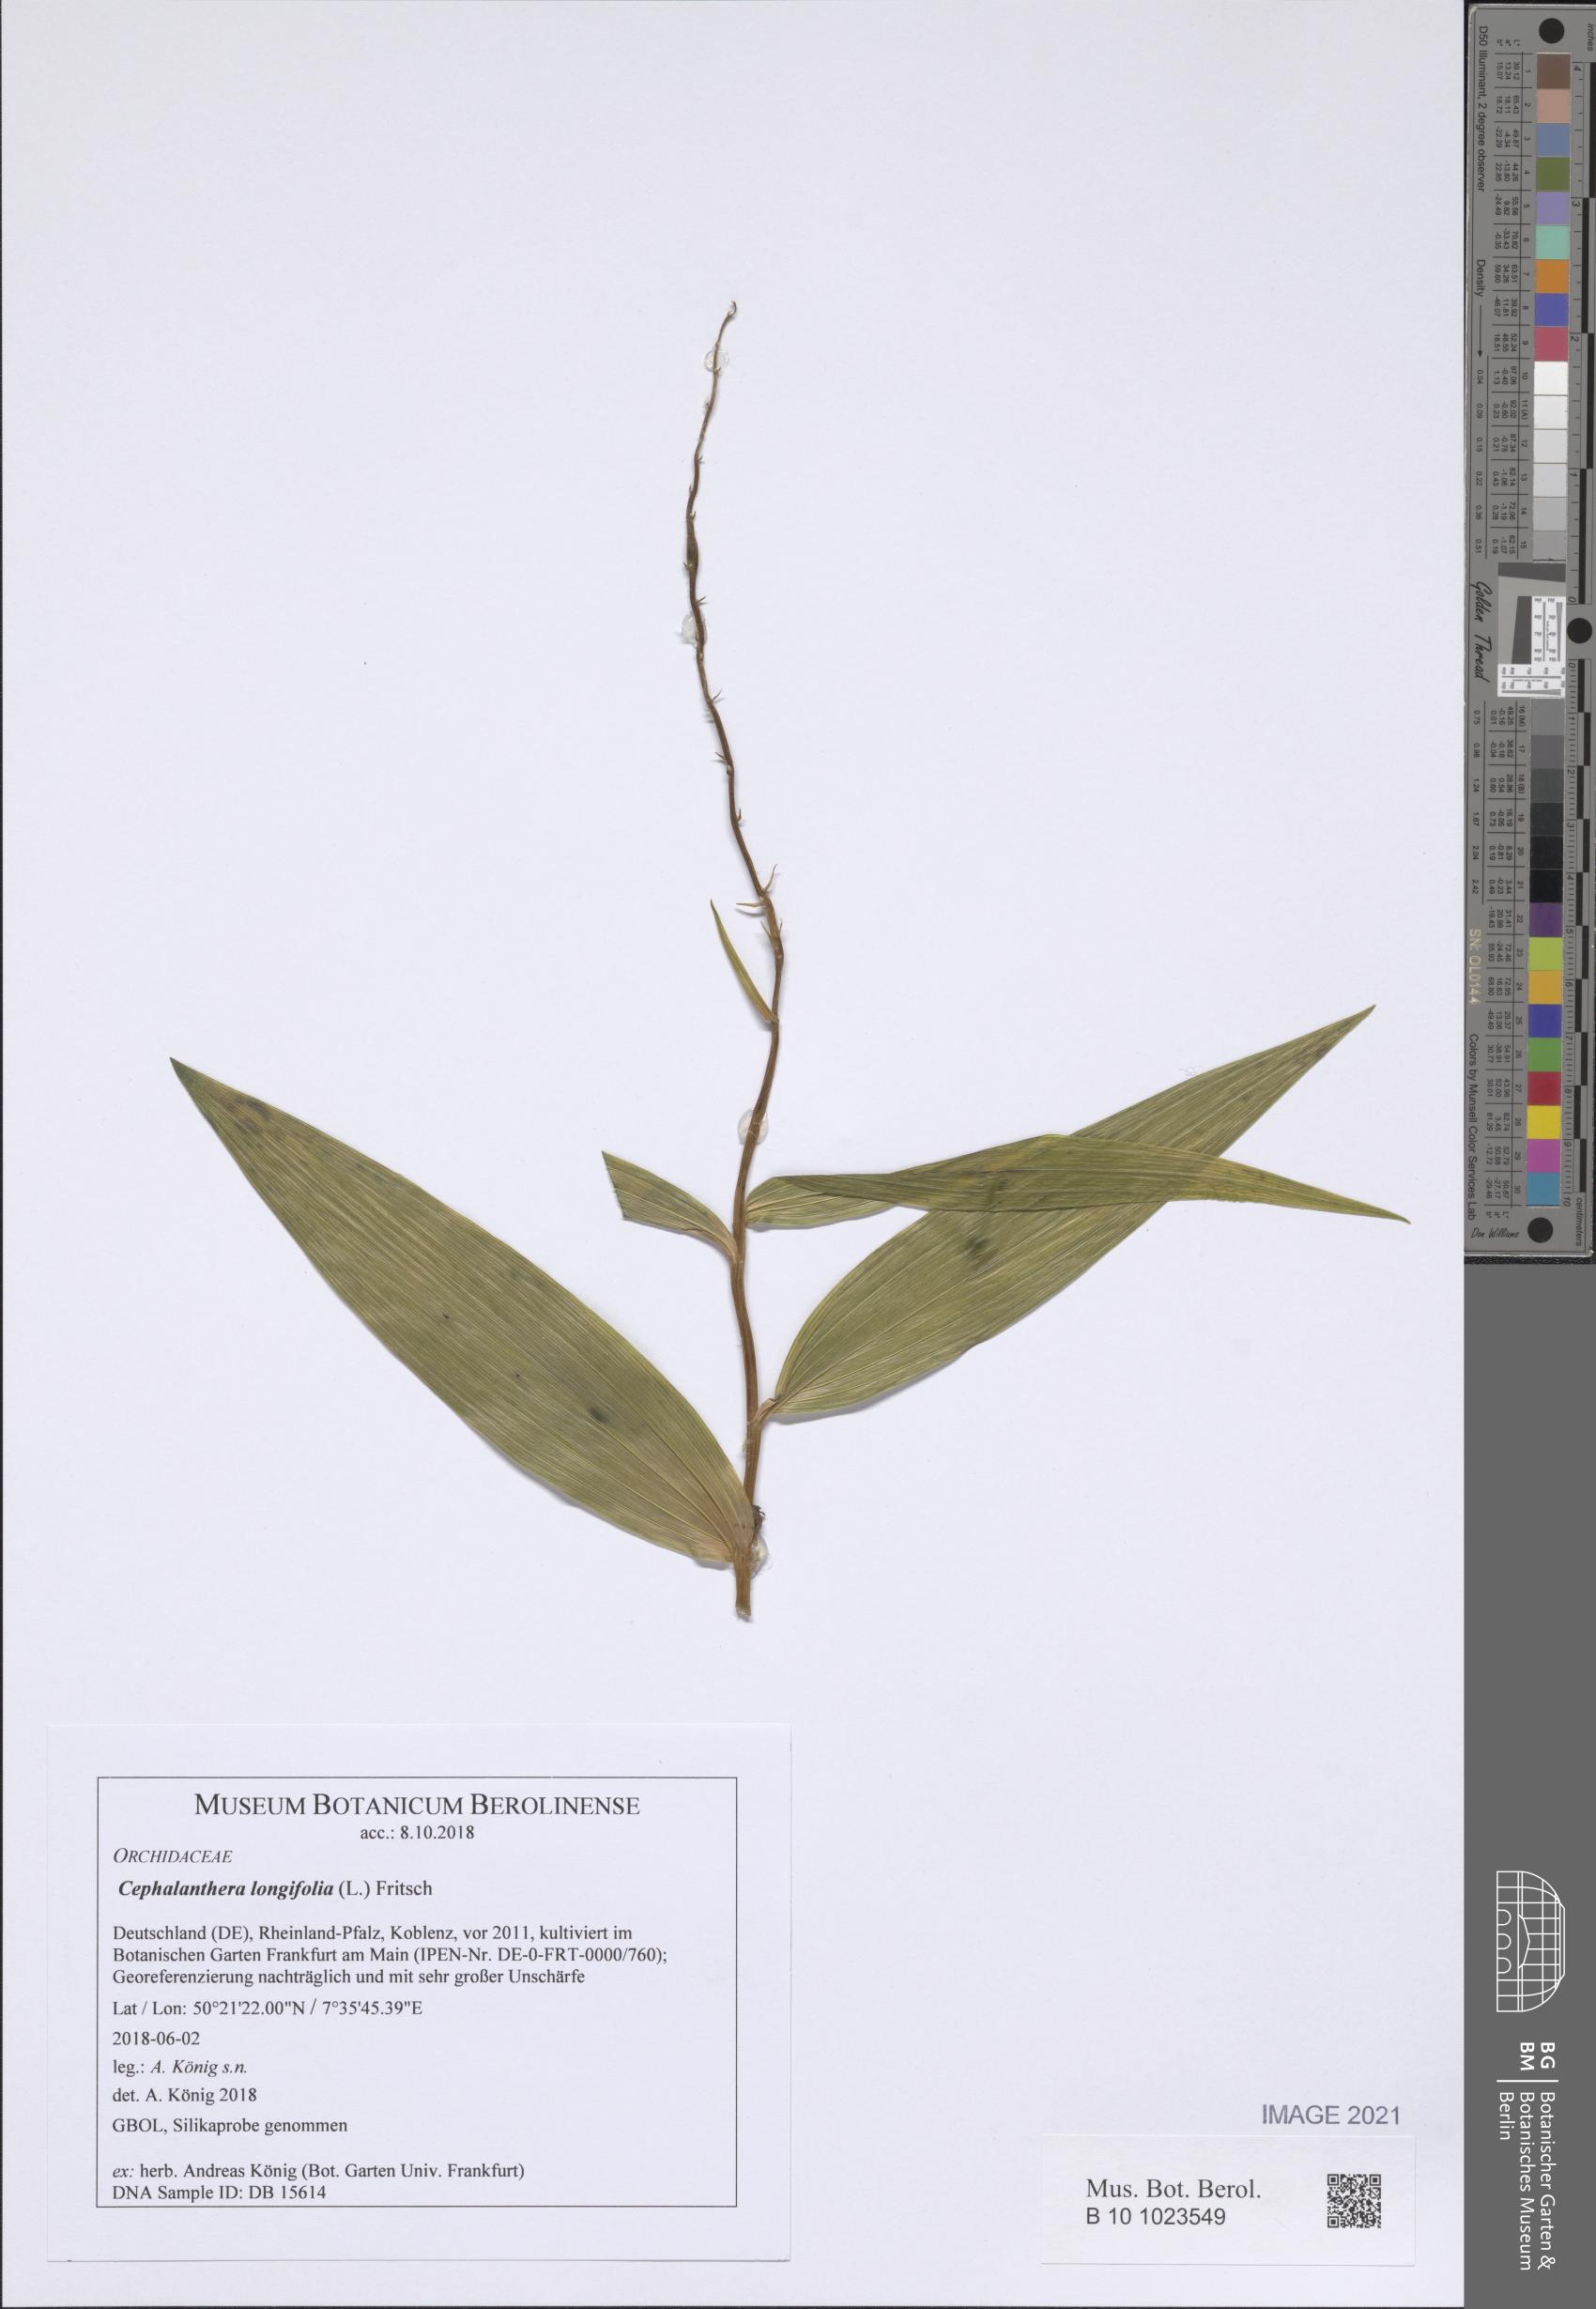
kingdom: Plantae
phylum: Tracheophyta
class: Liliopsida
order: Asparagales
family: Orchidaceae
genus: Cephalanthera
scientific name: Cephalanthera longifolia
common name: Narrow-leaved helleborine
